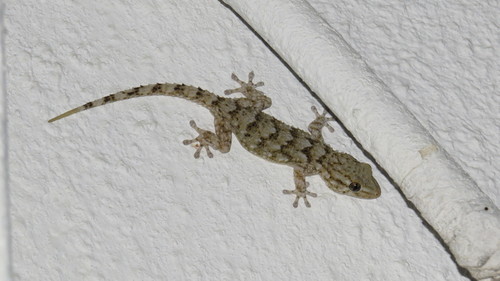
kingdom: Animalia
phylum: Chordata
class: Squamata
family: Phyllodactylidae
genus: Tarentola
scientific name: Tarentola mauritanica
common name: Moorish gecko
